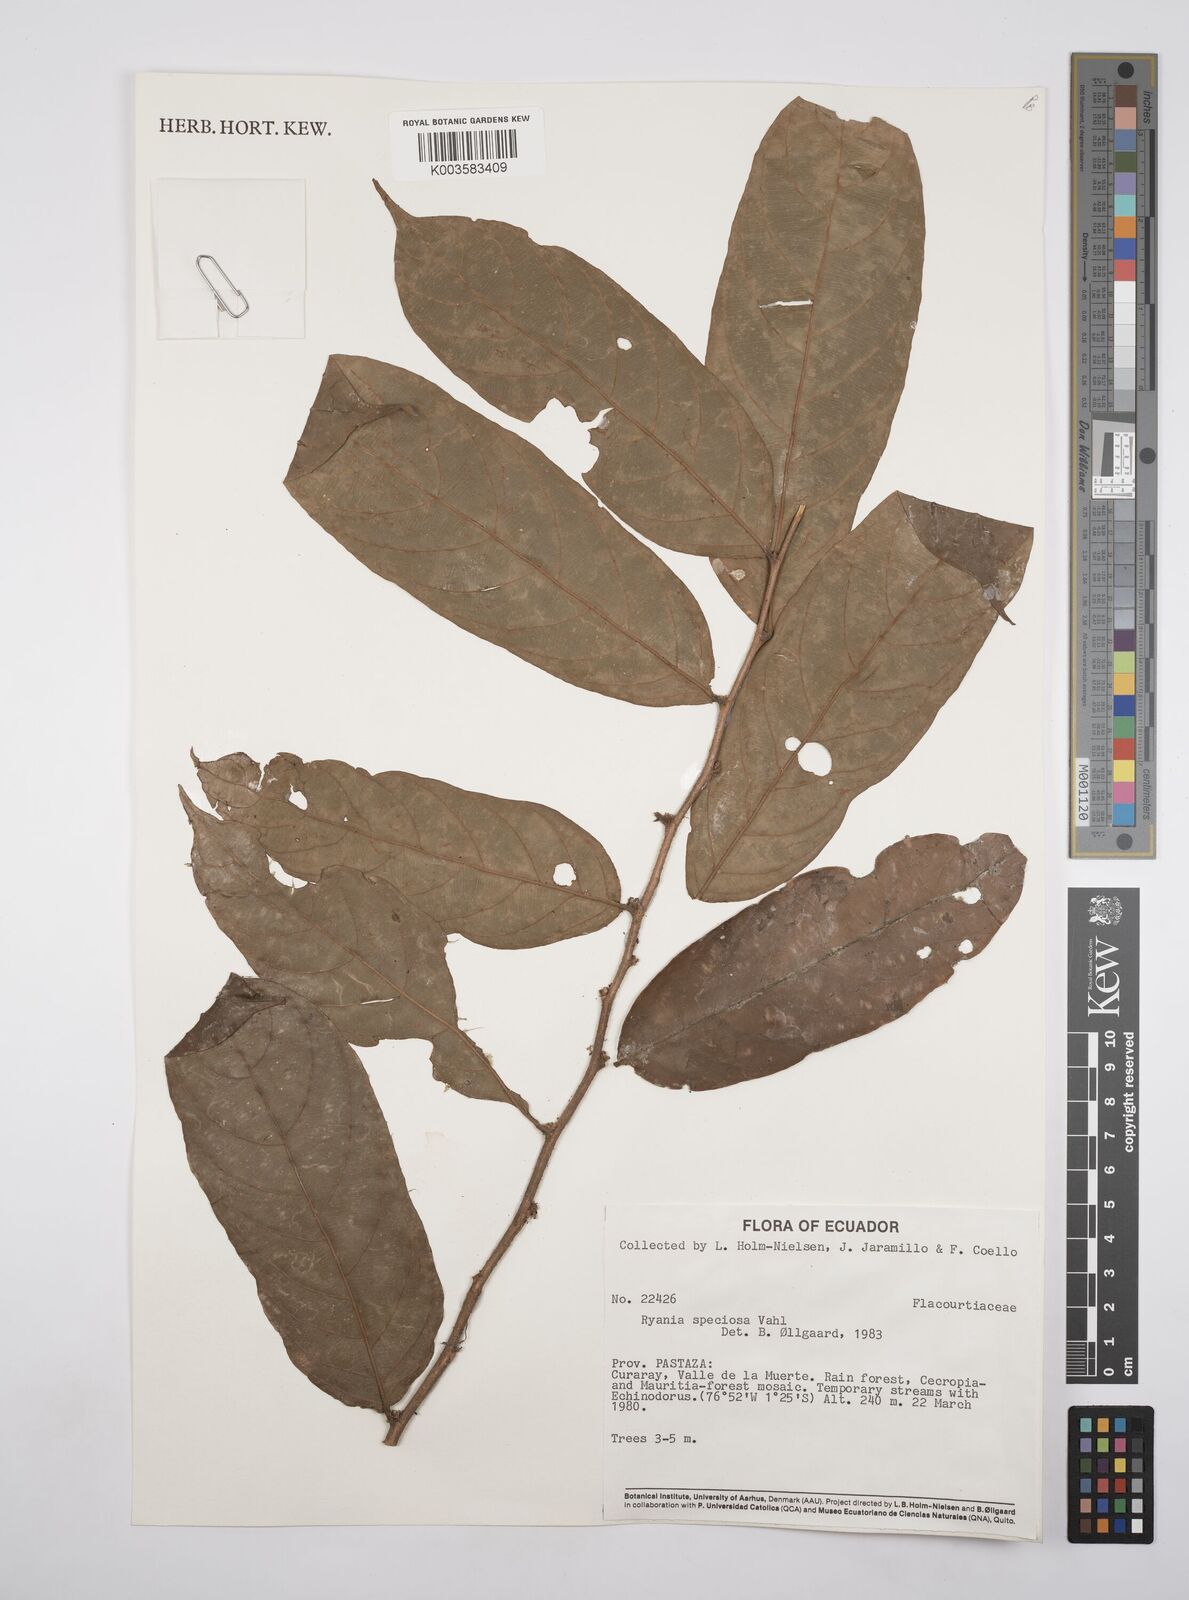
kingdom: Plantae
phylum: Tracheophyta
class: Magnoliopsida
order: Malpighiales
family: Salicaceae
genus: Ryania
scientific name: Ryania speciosa
